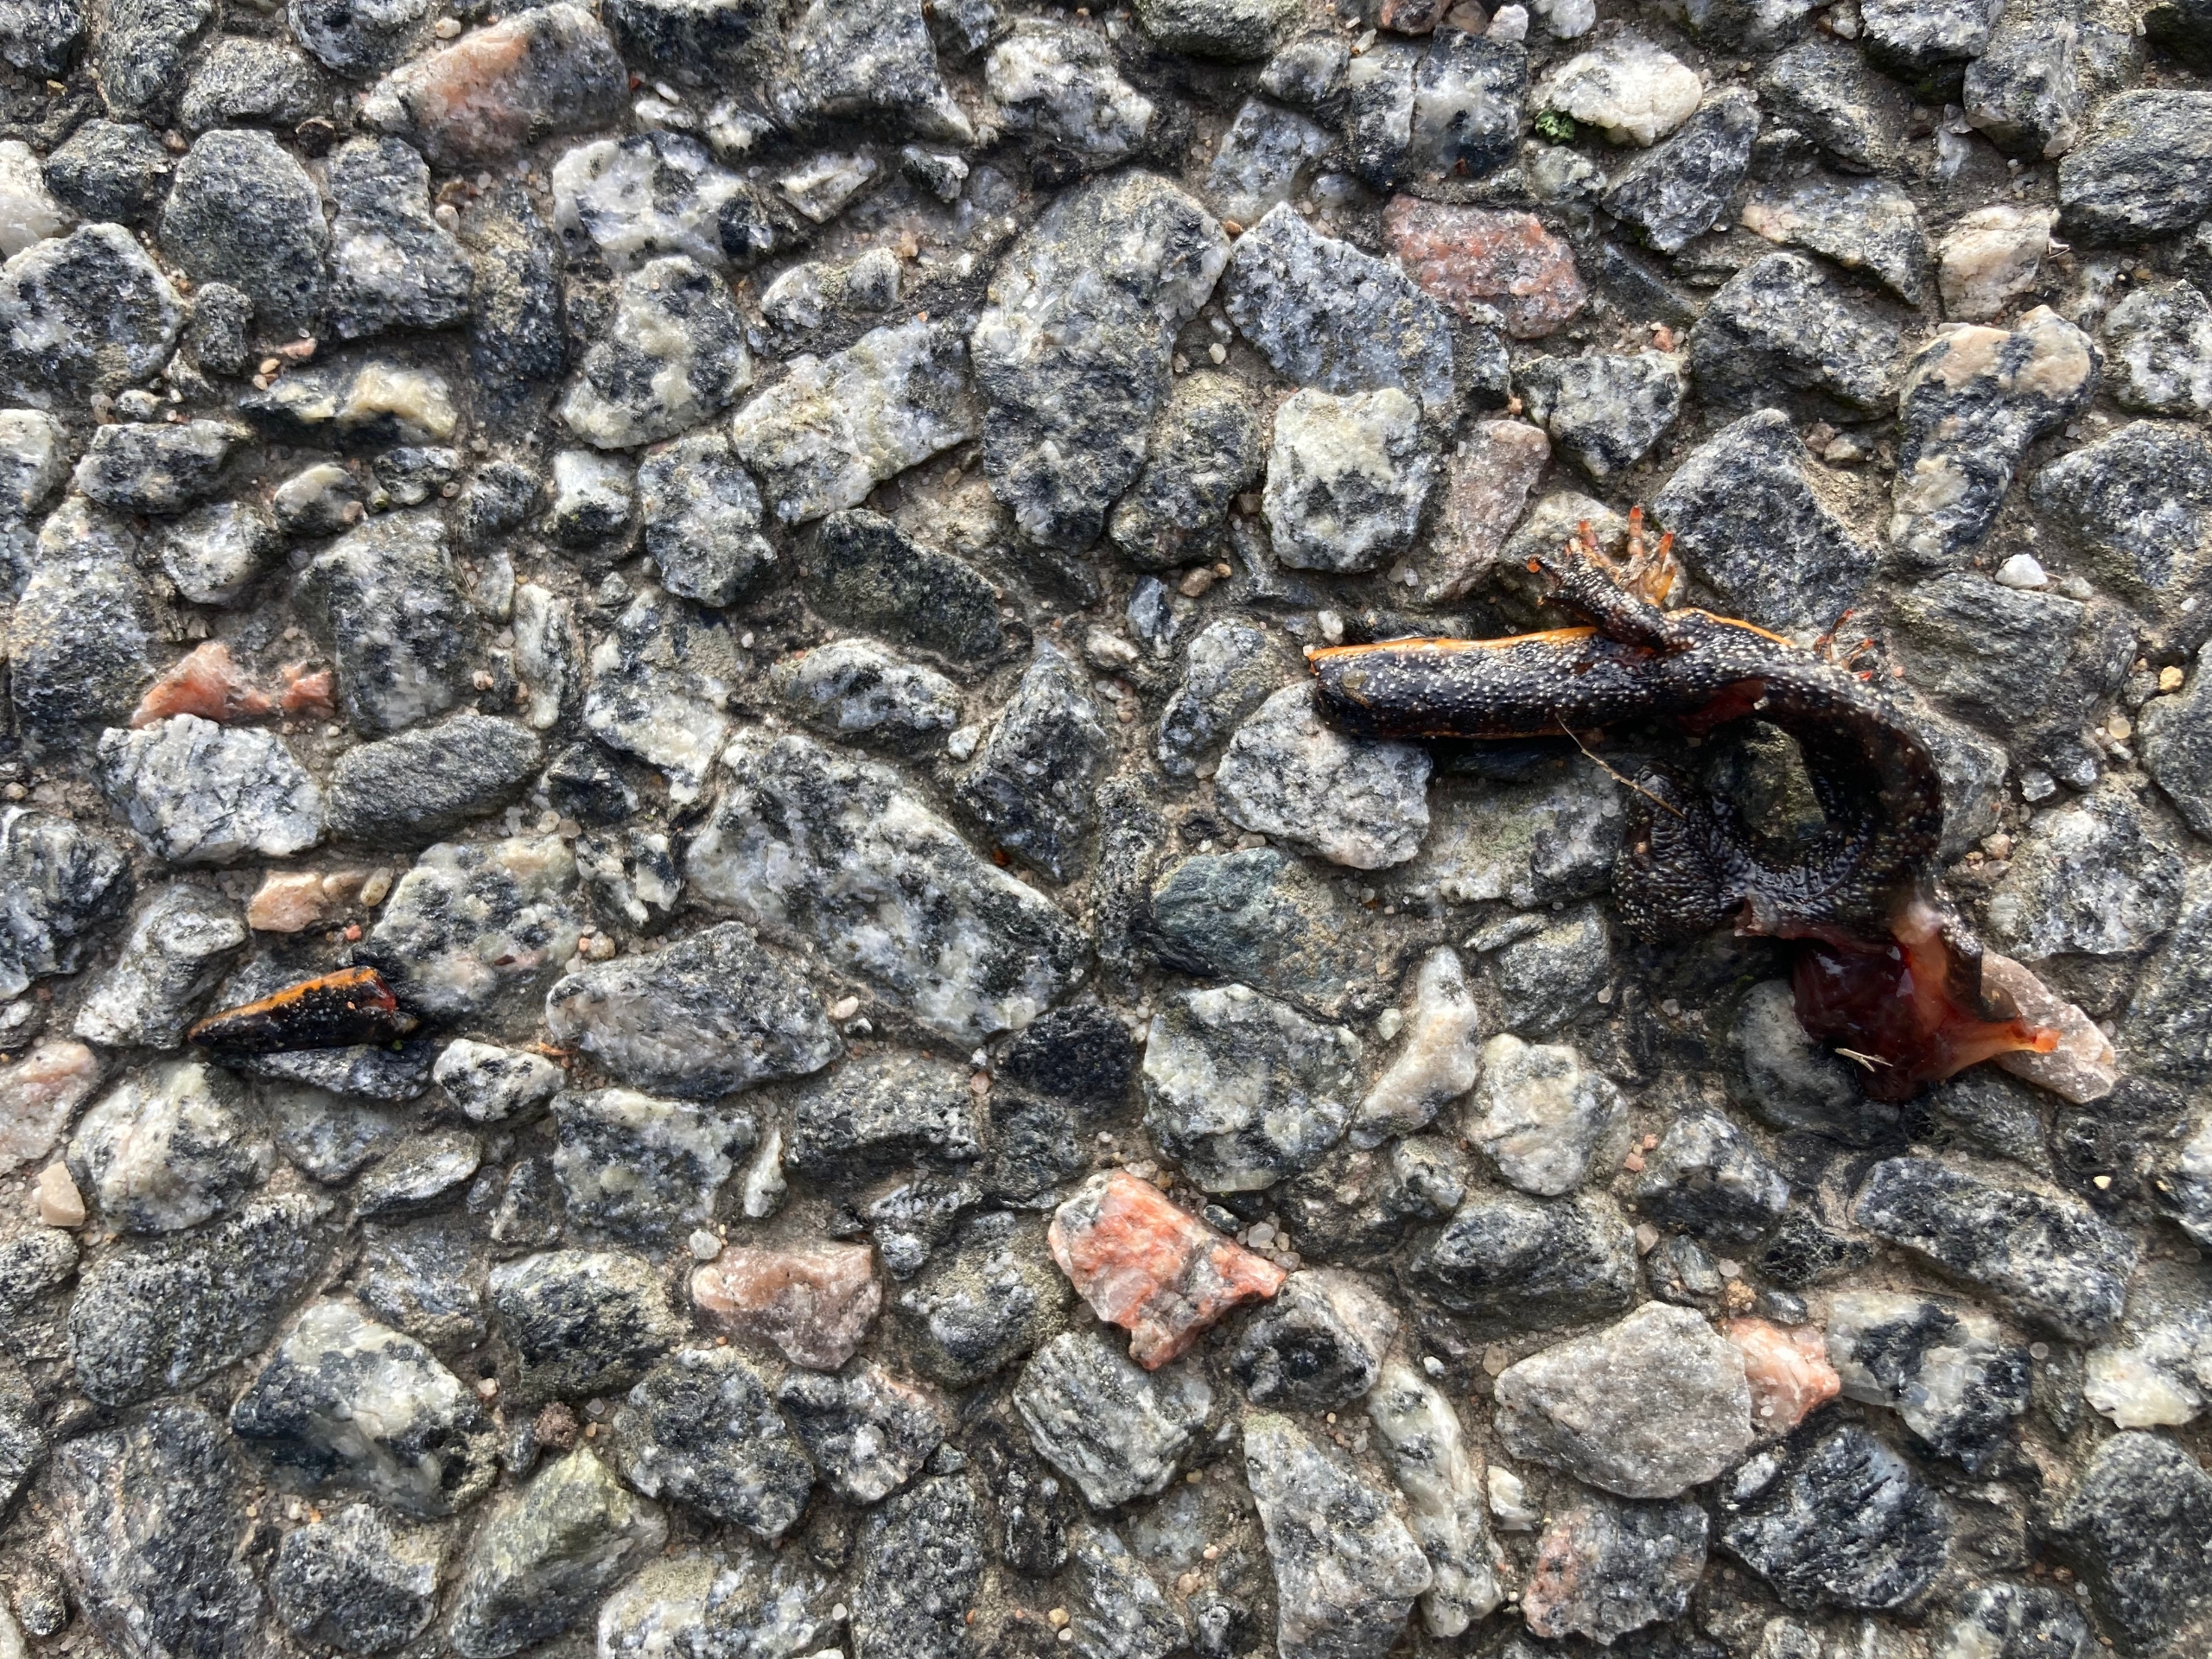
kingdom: Animalia
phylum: Chordata
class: Amphibia
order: Caudata
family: Salamandridae
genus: Triturus
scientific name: Triturus cristatus
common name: Stor vandsalamander
